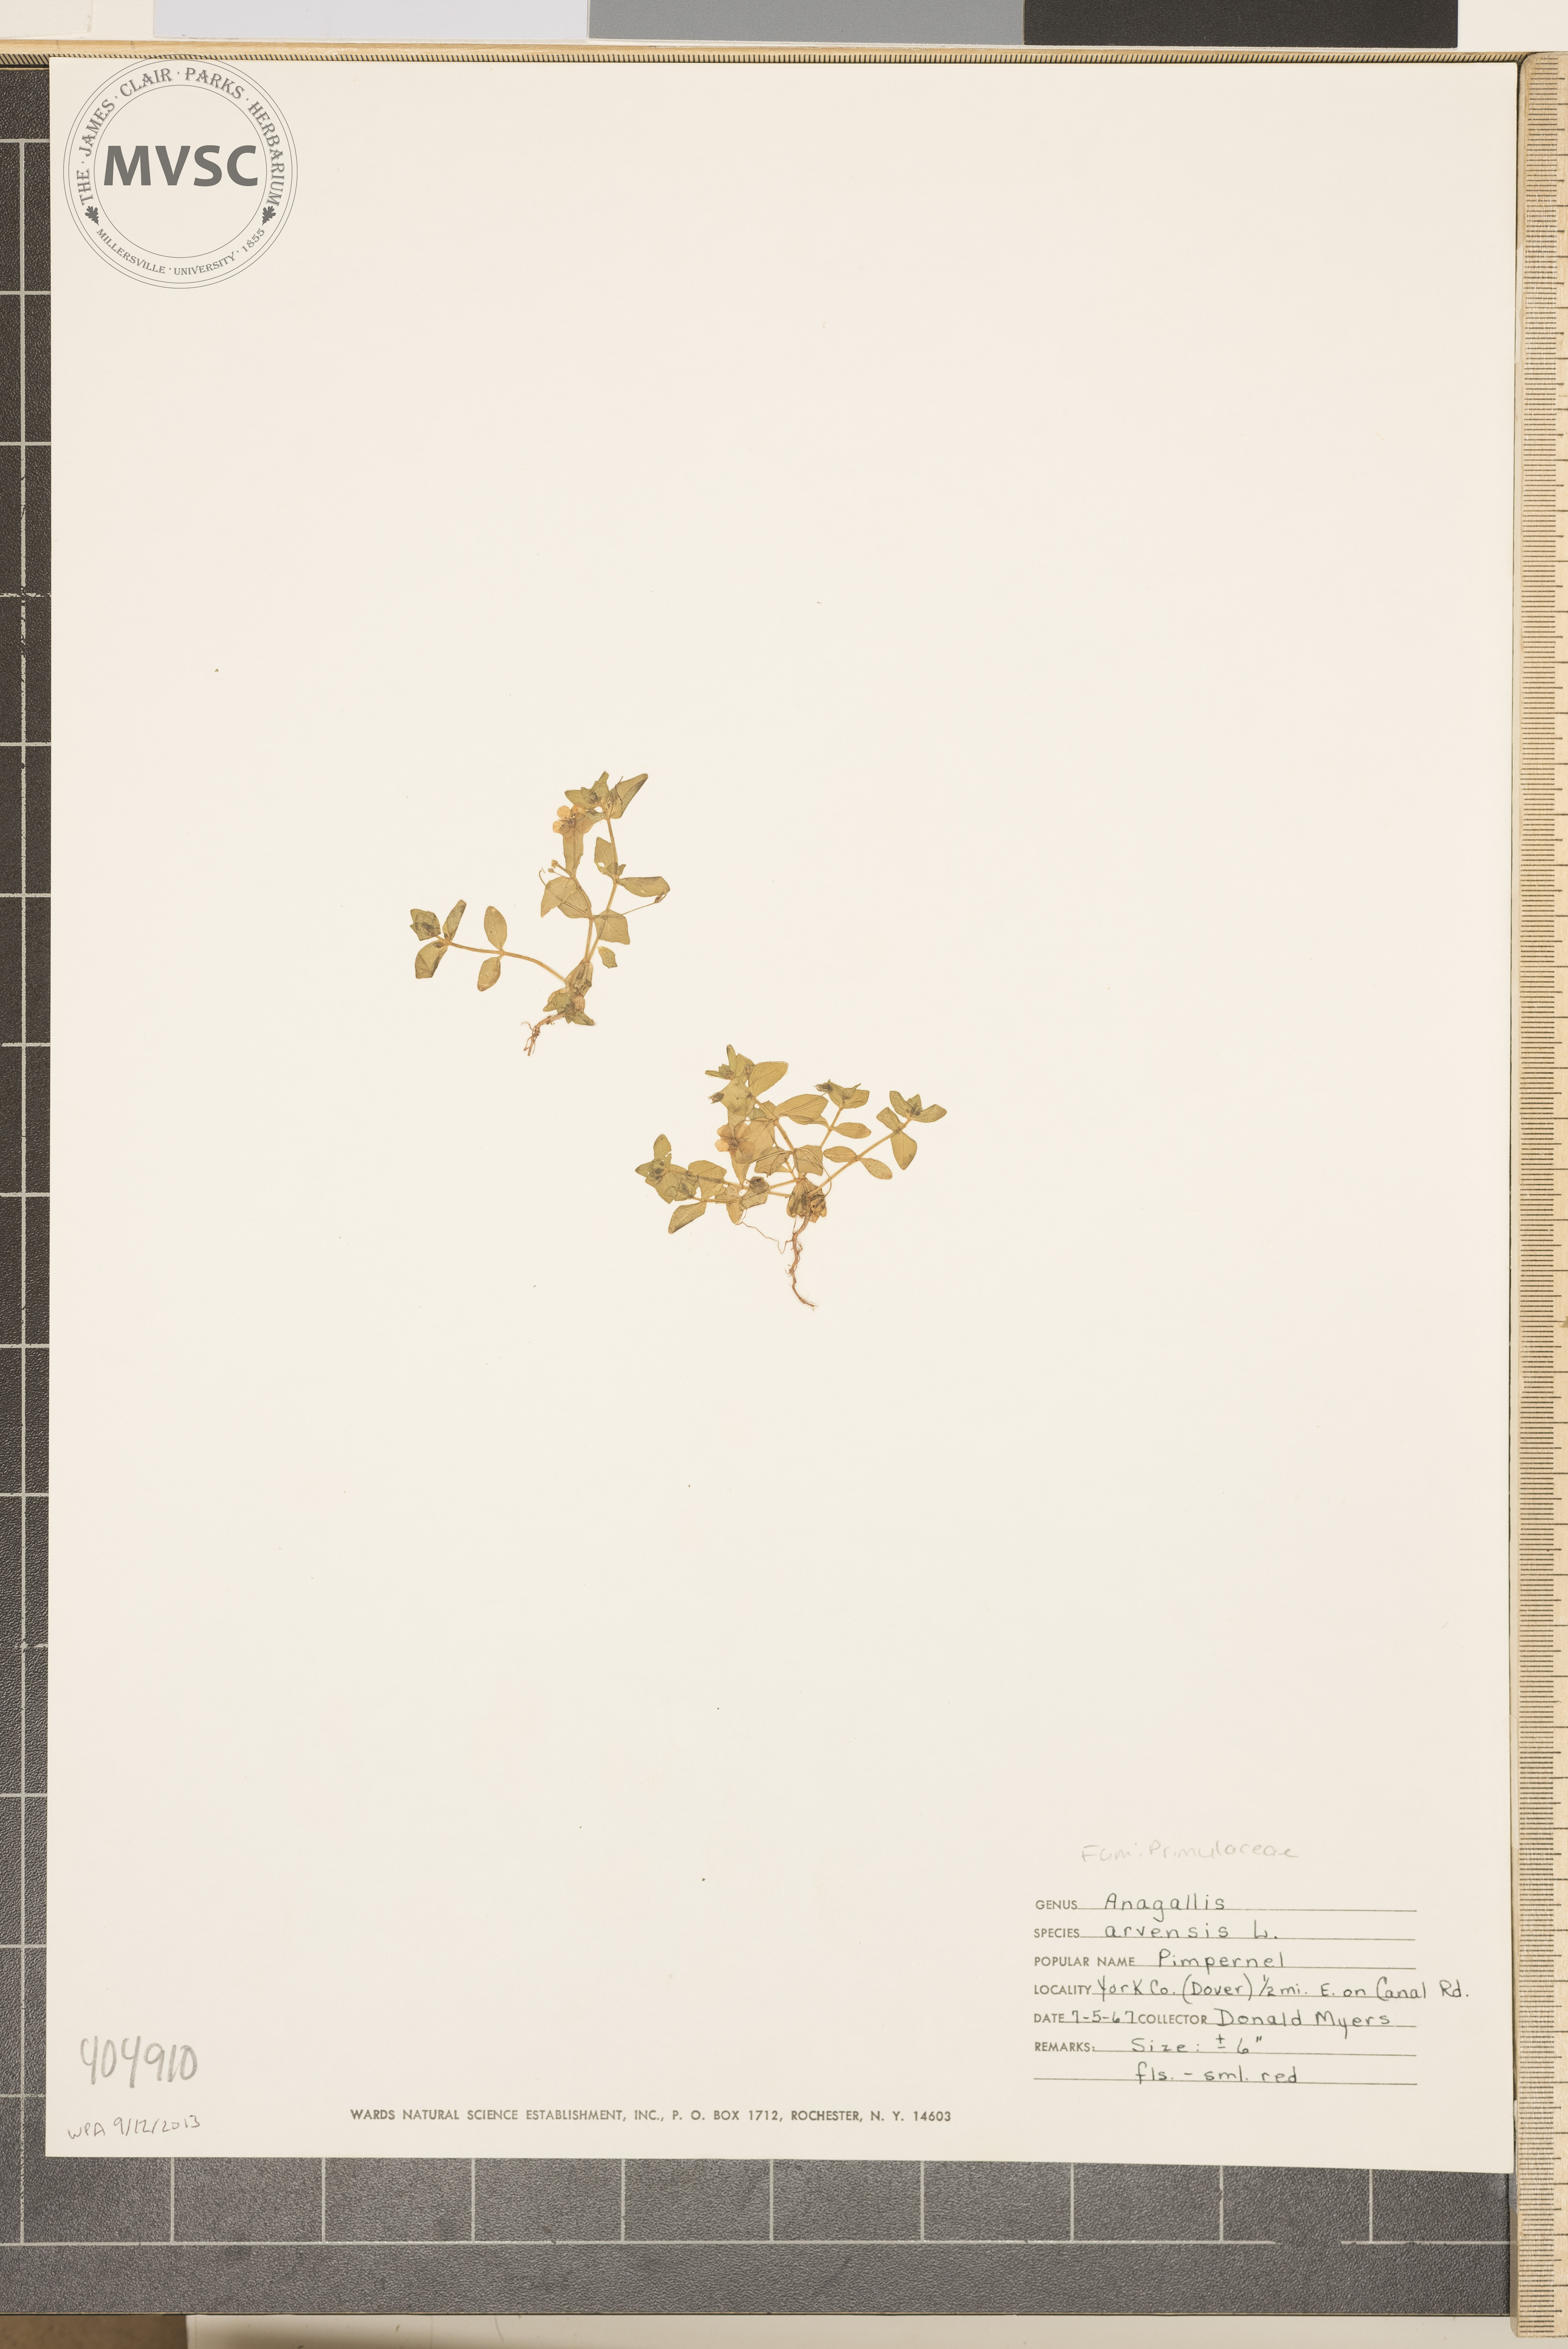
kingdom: Plantae
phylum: Tracheophyta
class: Magnoliopsida
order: Ericales
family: Primulaceae
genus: Lysimachia
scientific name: Lysimachia arvensis
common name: Pimpernel
